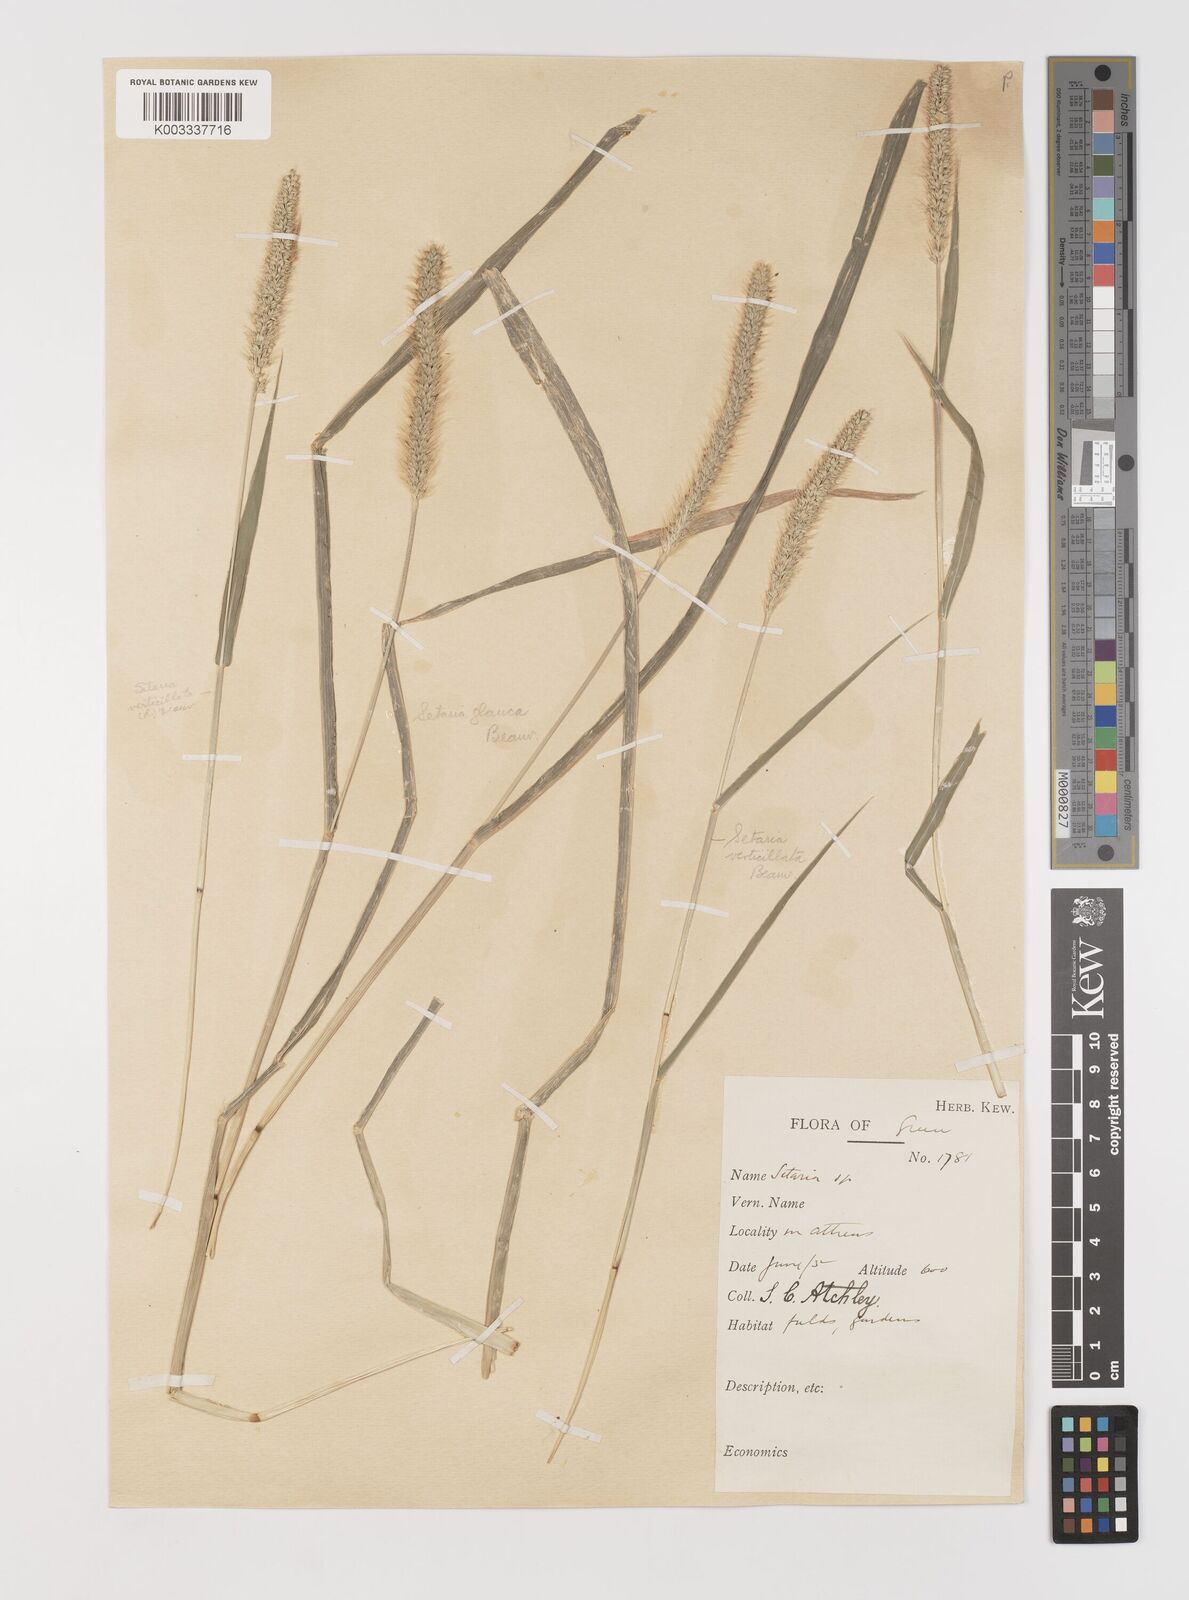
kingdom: Plantae
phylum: Tracheophyta
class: Liliopsida
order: Poales
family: Poaceae
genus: Setaria
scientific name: Setaria verticillata
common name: Hooked bristlegrass
